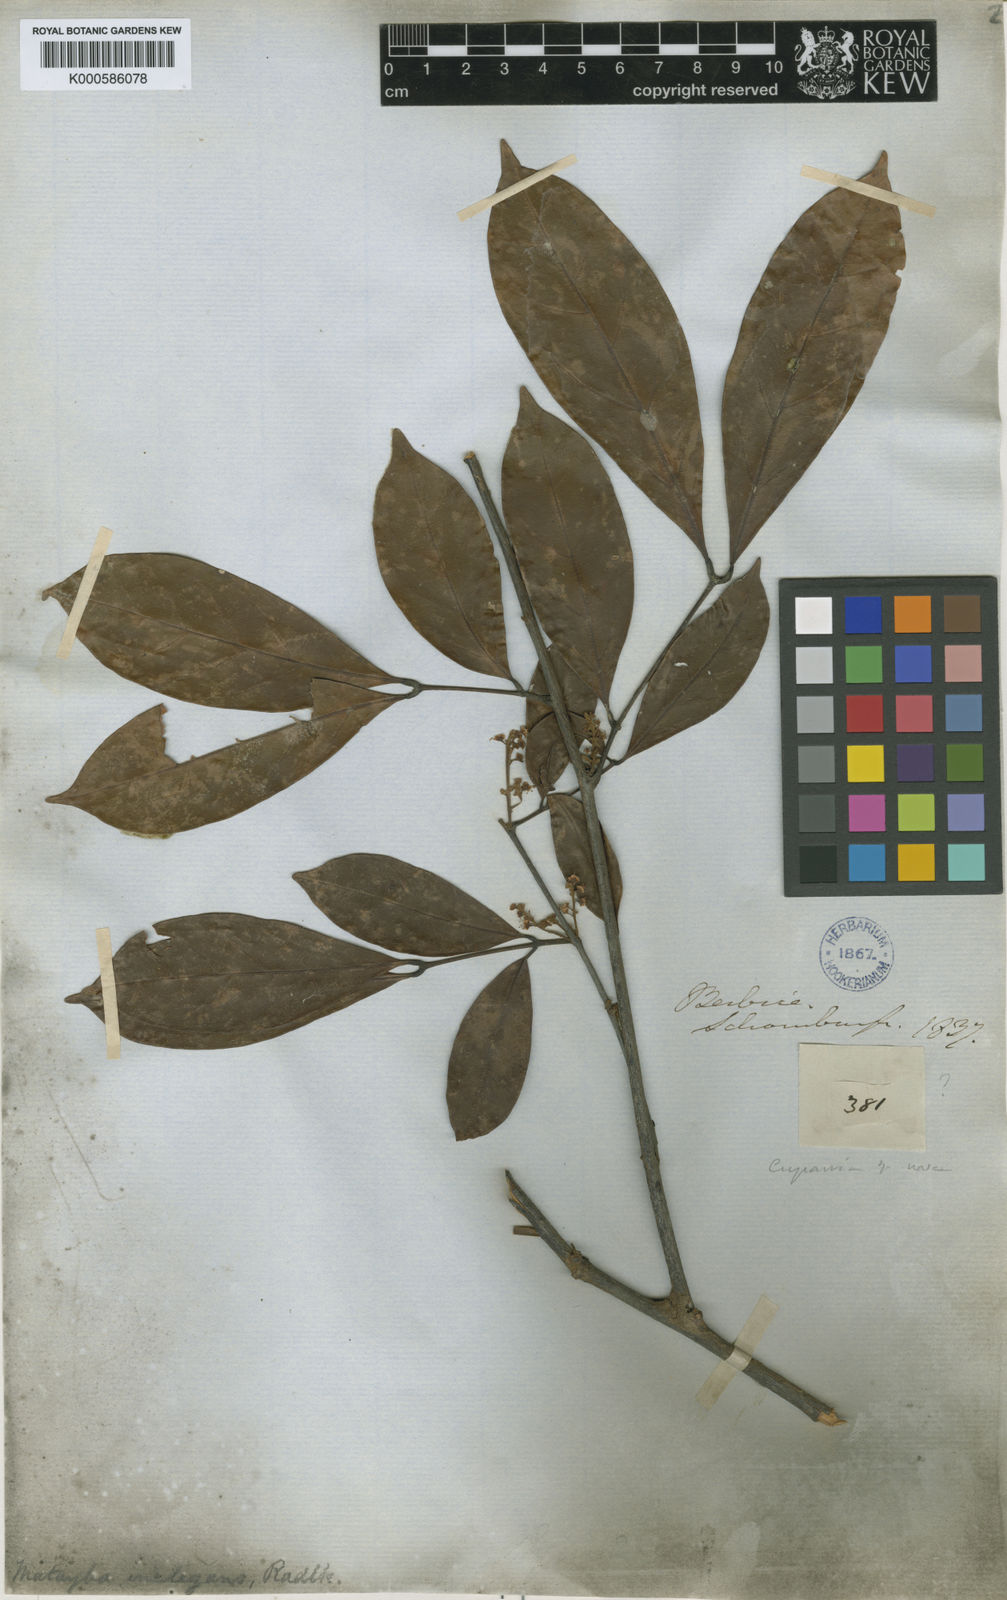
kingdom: Plantae
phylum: Tracheophyta
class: Magnoliopsida
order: Sapindales
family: Sapindaceae
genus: Matayba
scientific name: Matayba inelegans
